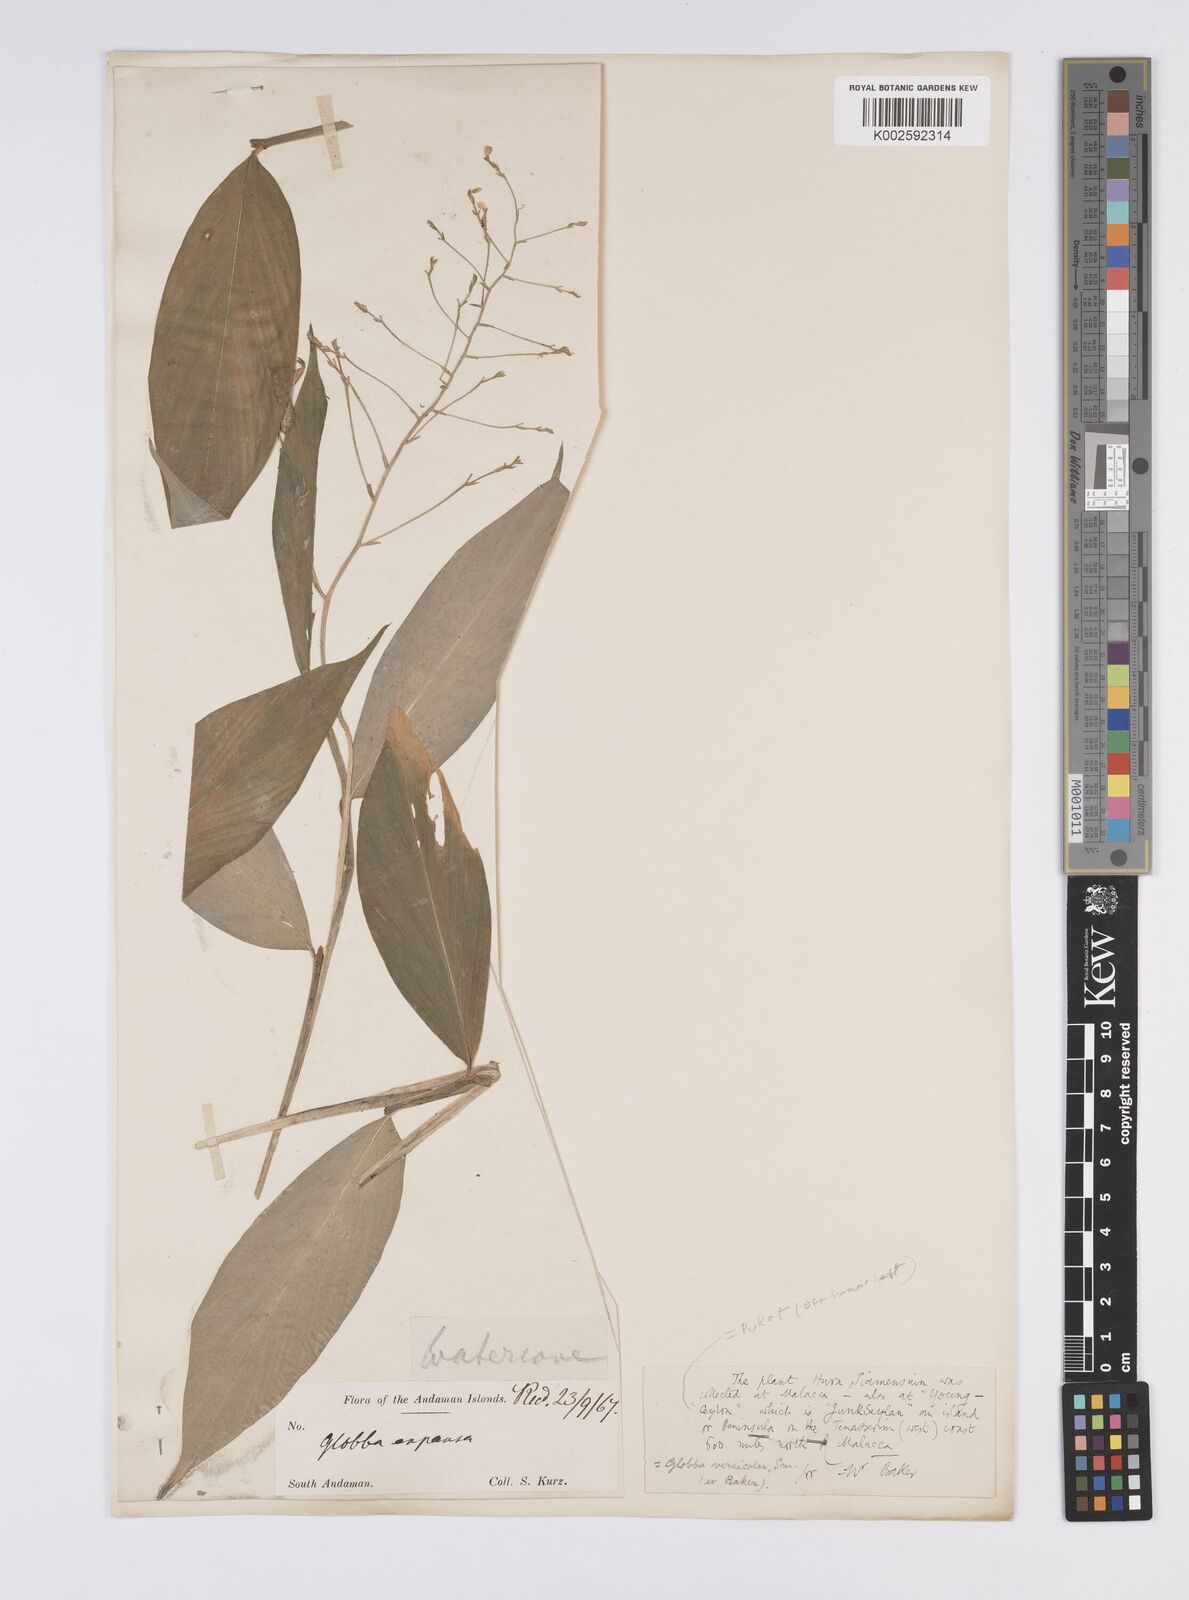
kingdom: Plantae
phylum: Tracheophyta
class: Liliopsida
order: Zingiberales
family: Zingiberaceae
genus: Globba
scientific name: Globba pendula
